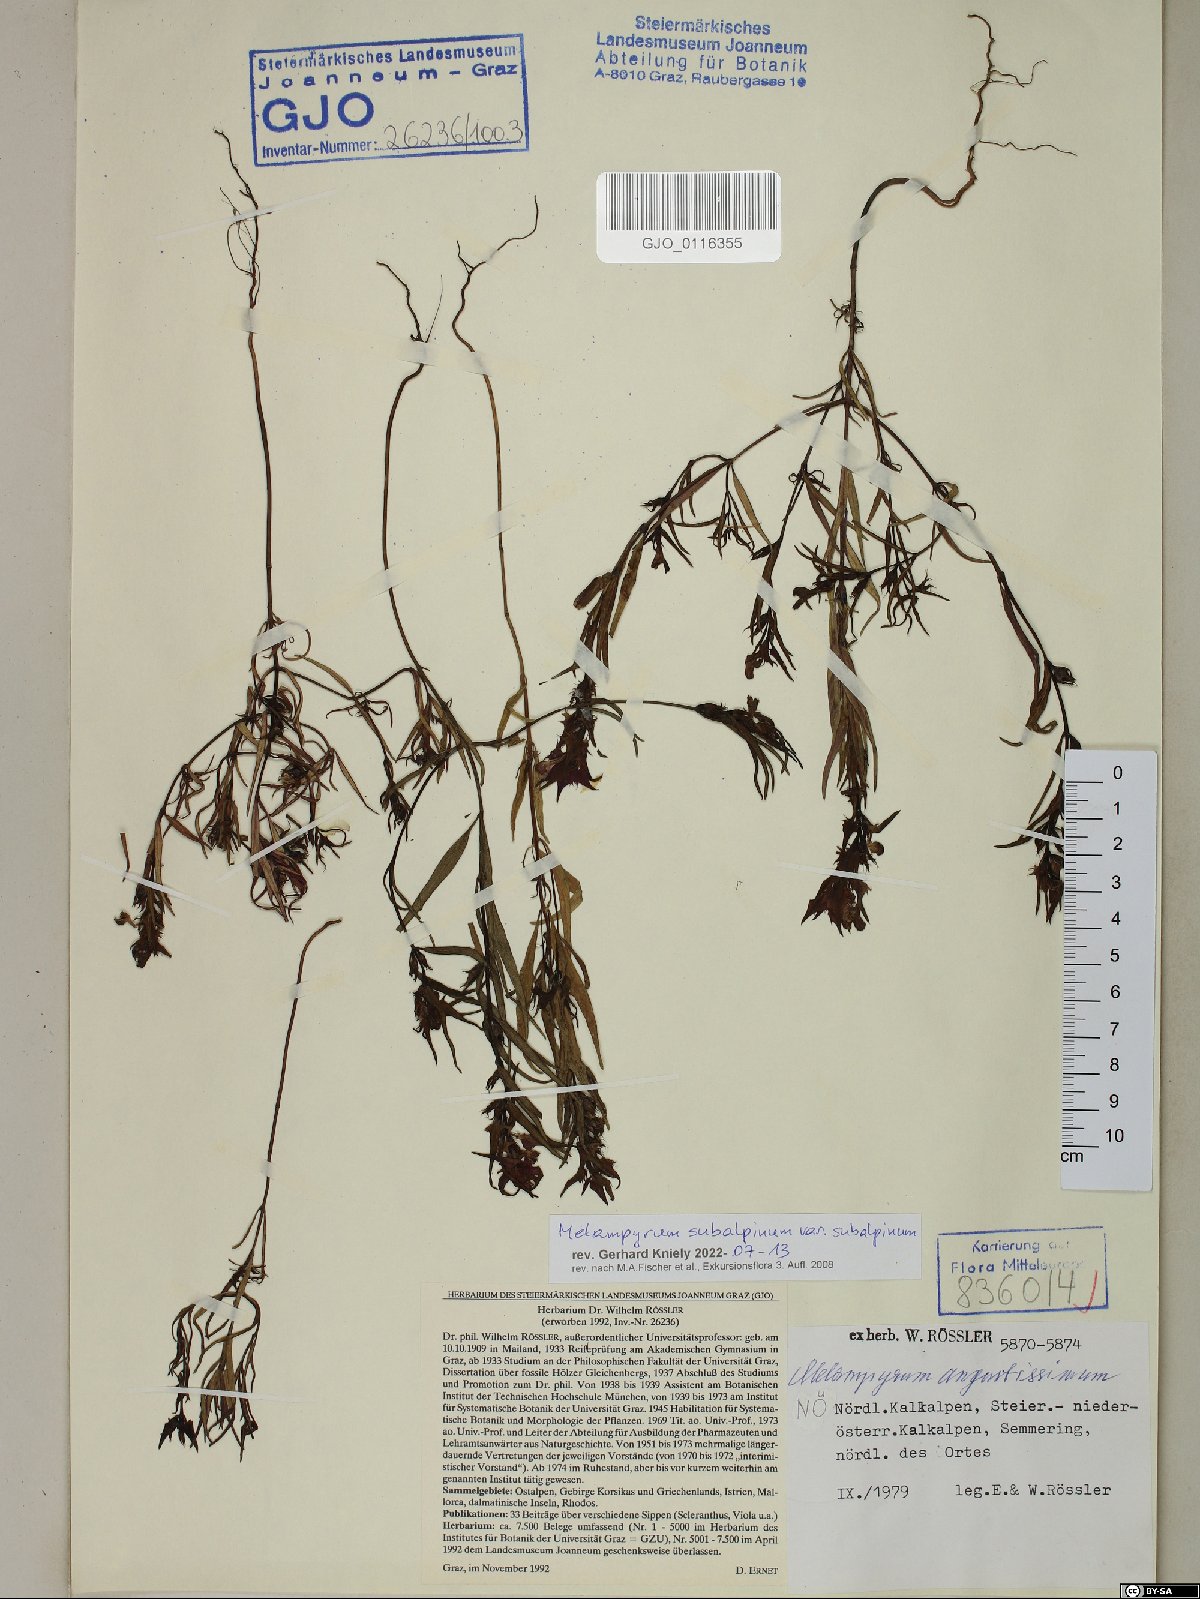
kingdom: Plantae
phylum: Tracheophyta
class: Magnoliopsida
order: Lamiales
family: Orobanchaceae
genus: Melampyrum
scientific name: Melampyrum subalpinum
